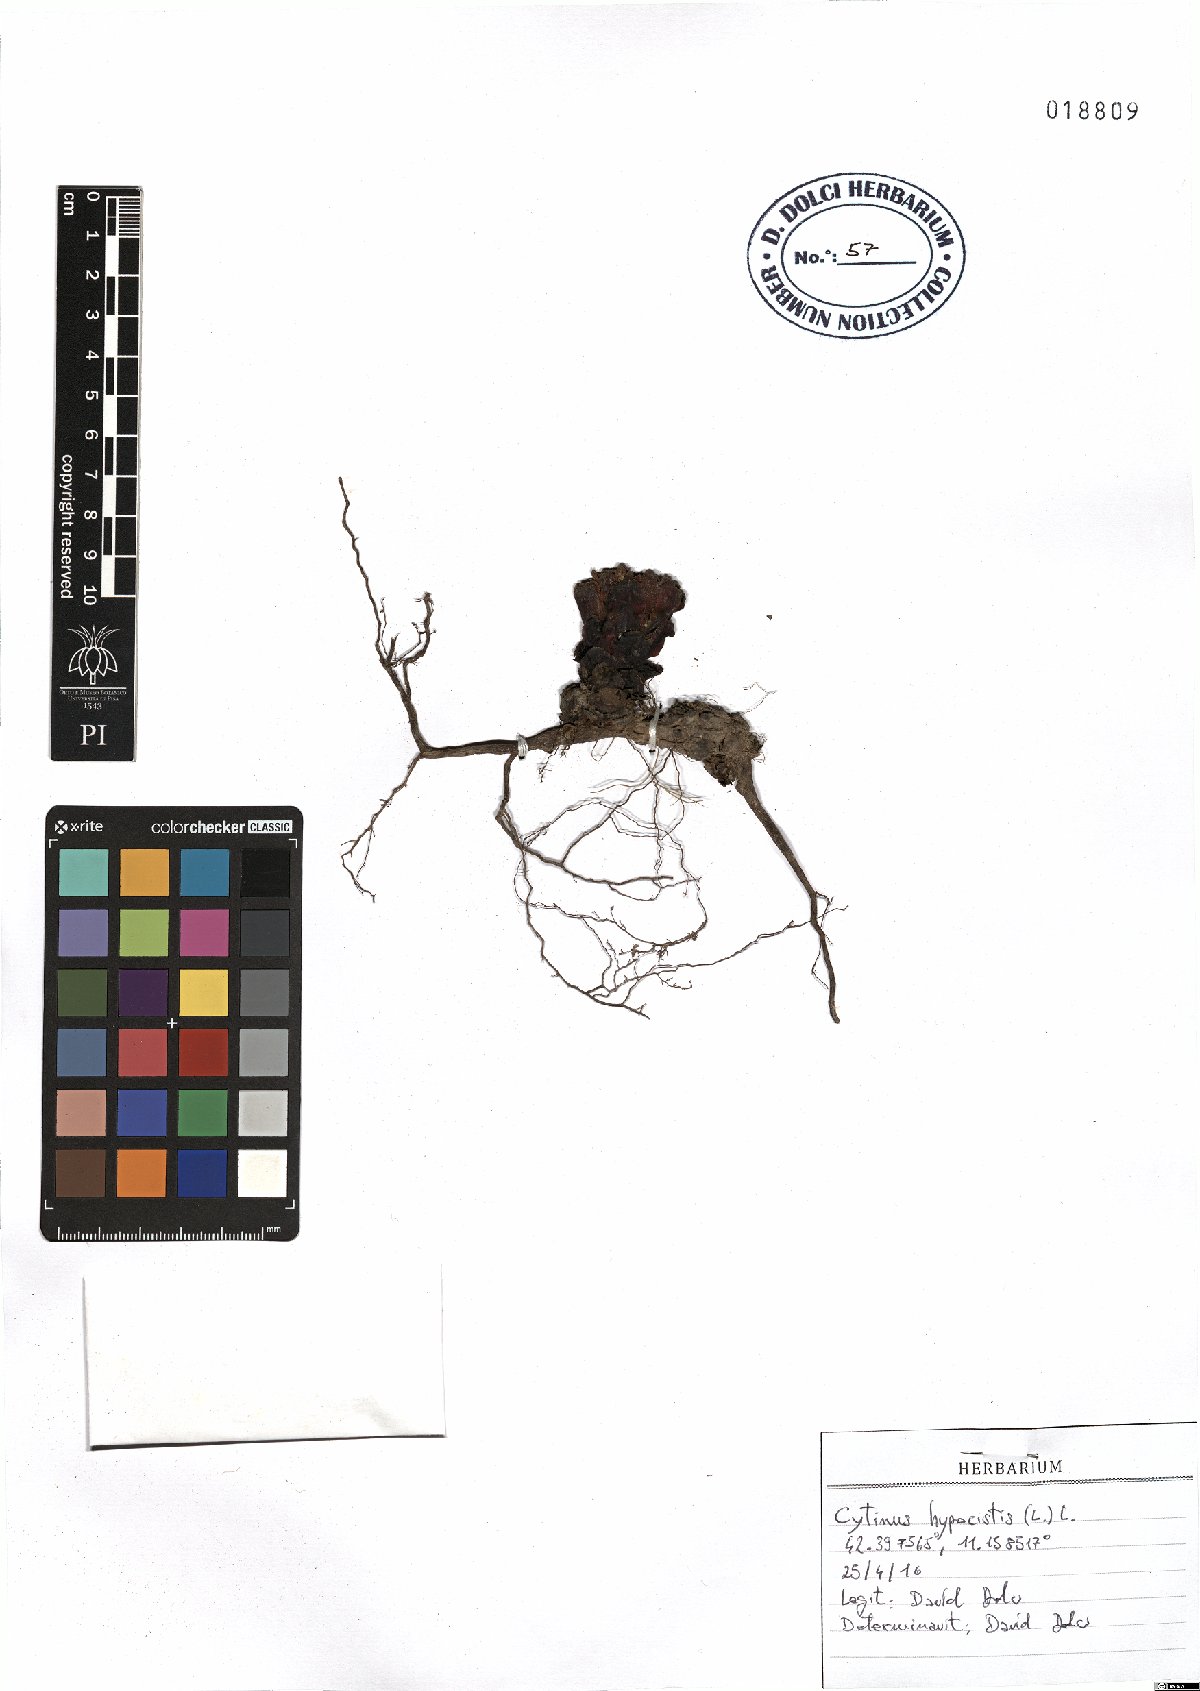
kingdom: Plantae
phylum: Tracheophyta
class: Magnoliopsida
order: Malvales
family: Cytinaceae
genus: Cytinus
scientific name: Cytinus hypocistis
